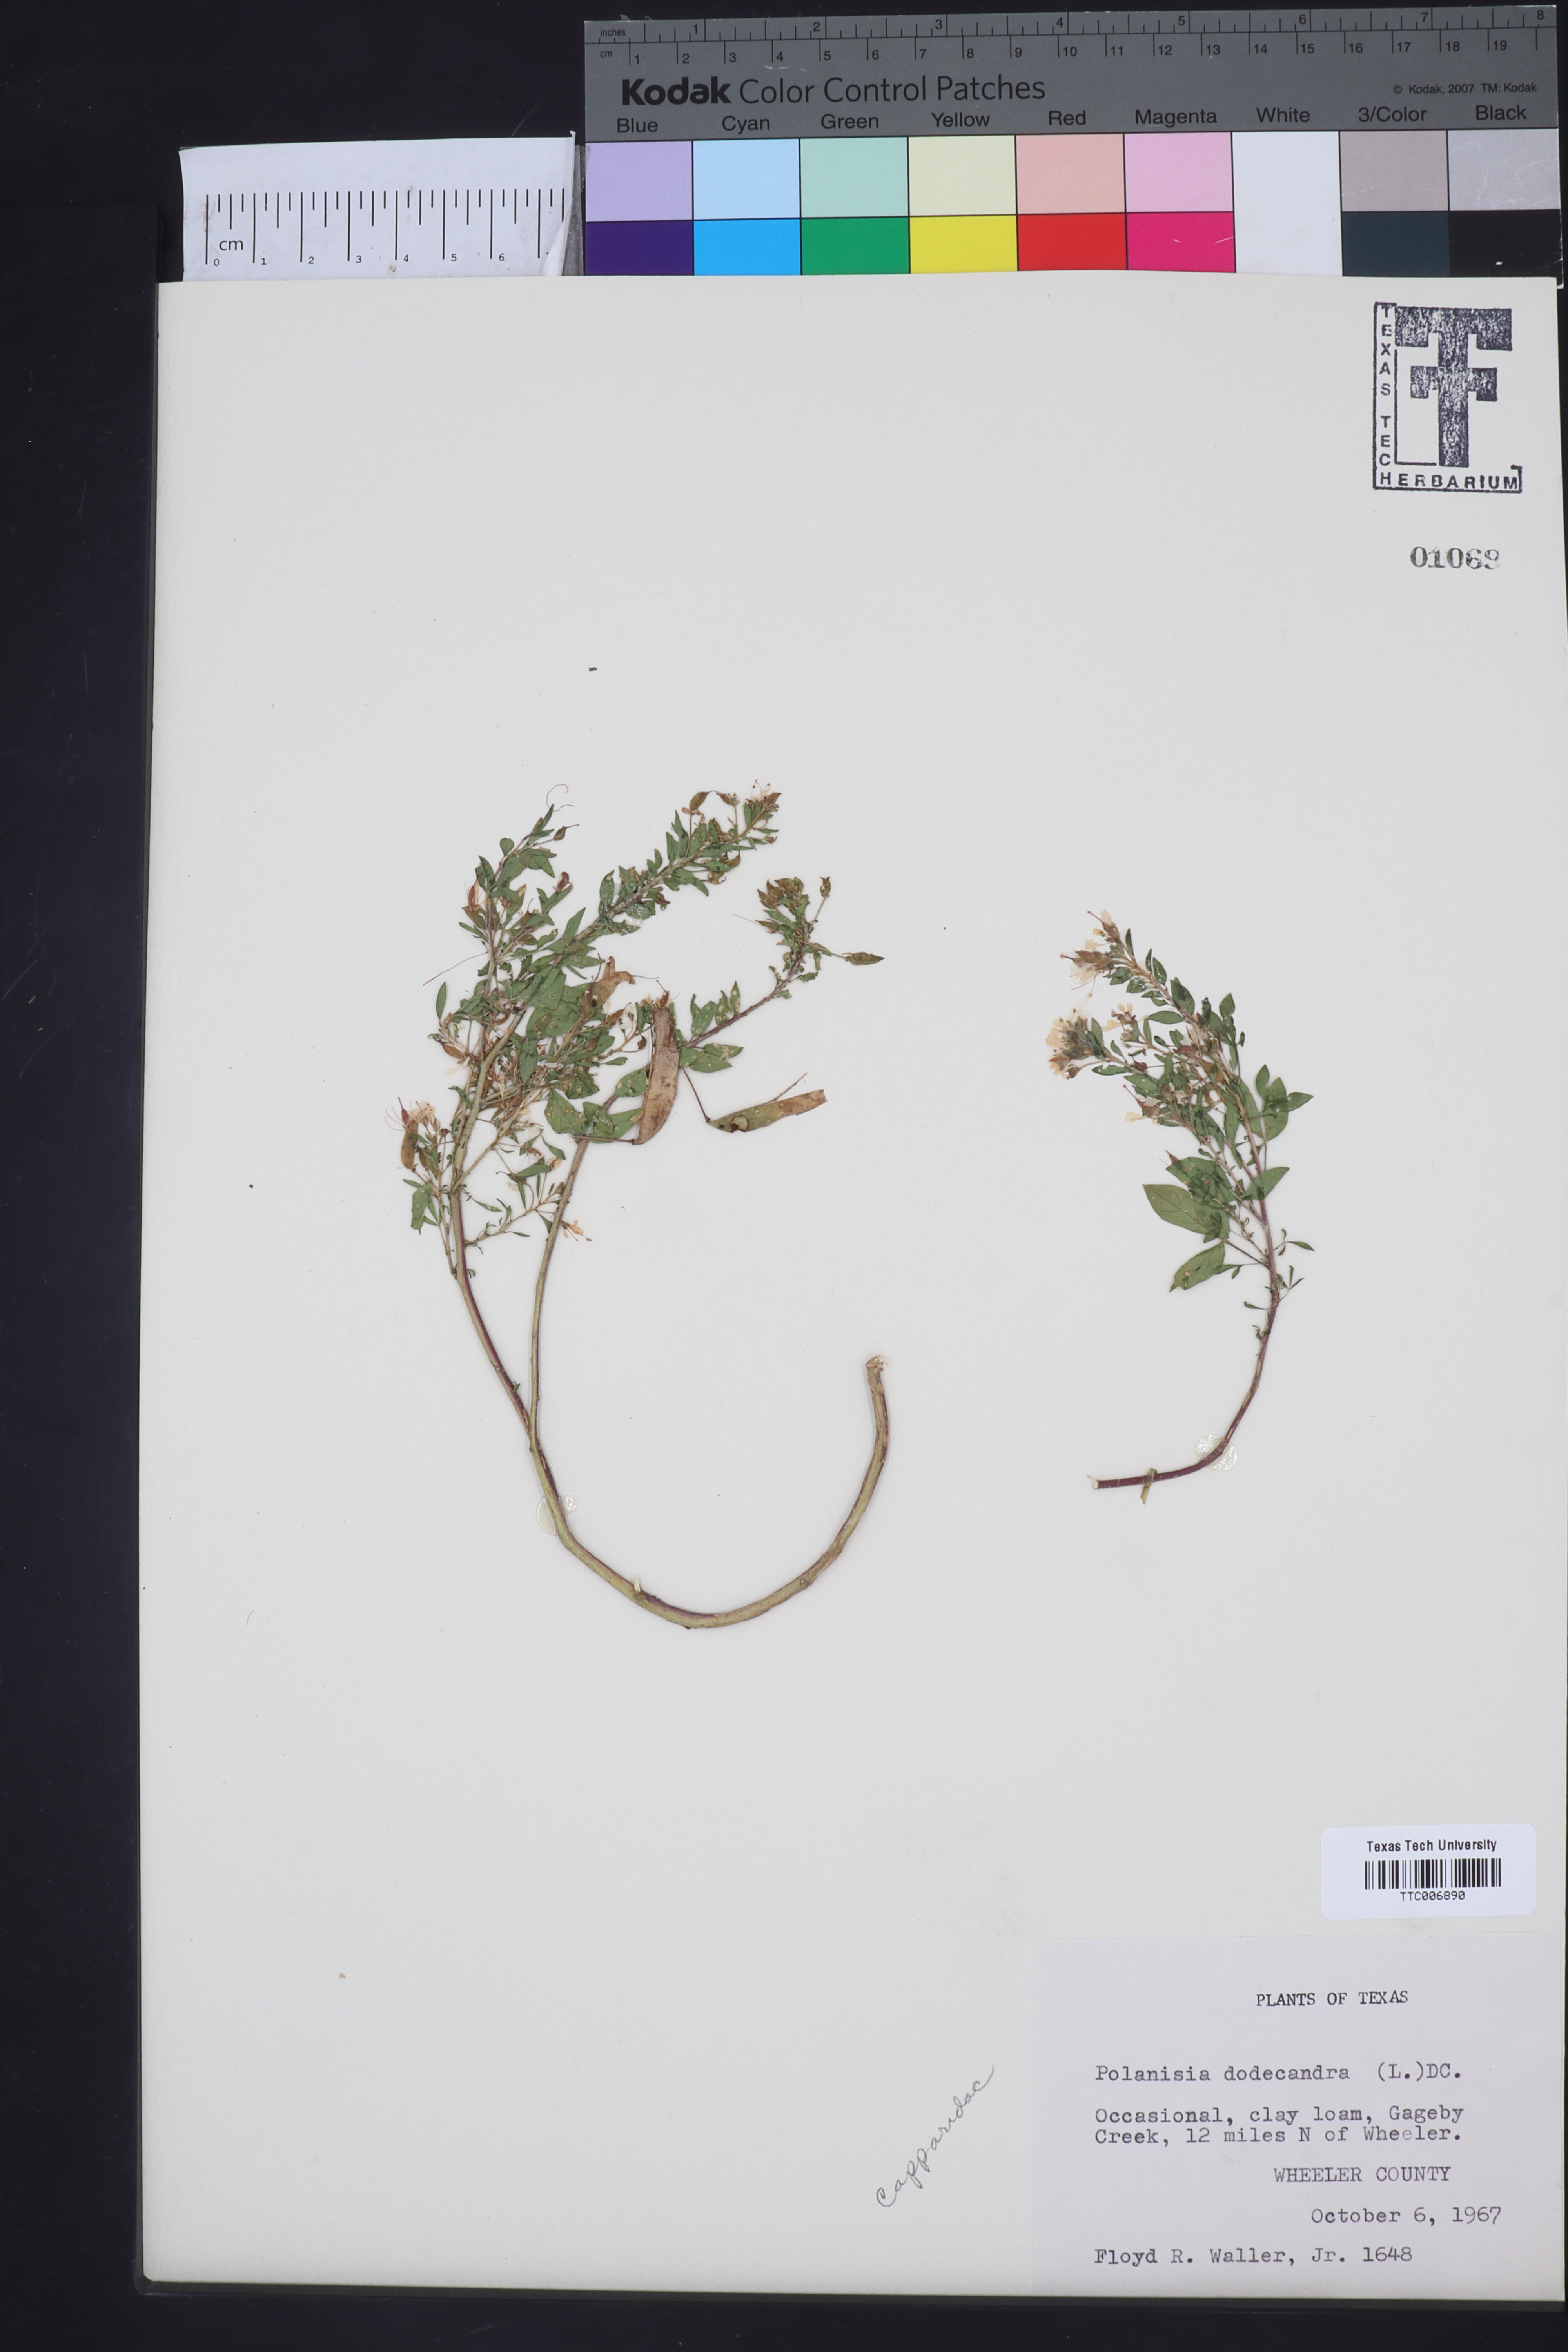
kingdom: Plantae
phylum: Tracheophyta
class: Magnoliopsida
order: Brassicales
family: Cleomaceae
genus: Polanisia
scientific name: Polanisia dodecandra
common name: Clammyweed
